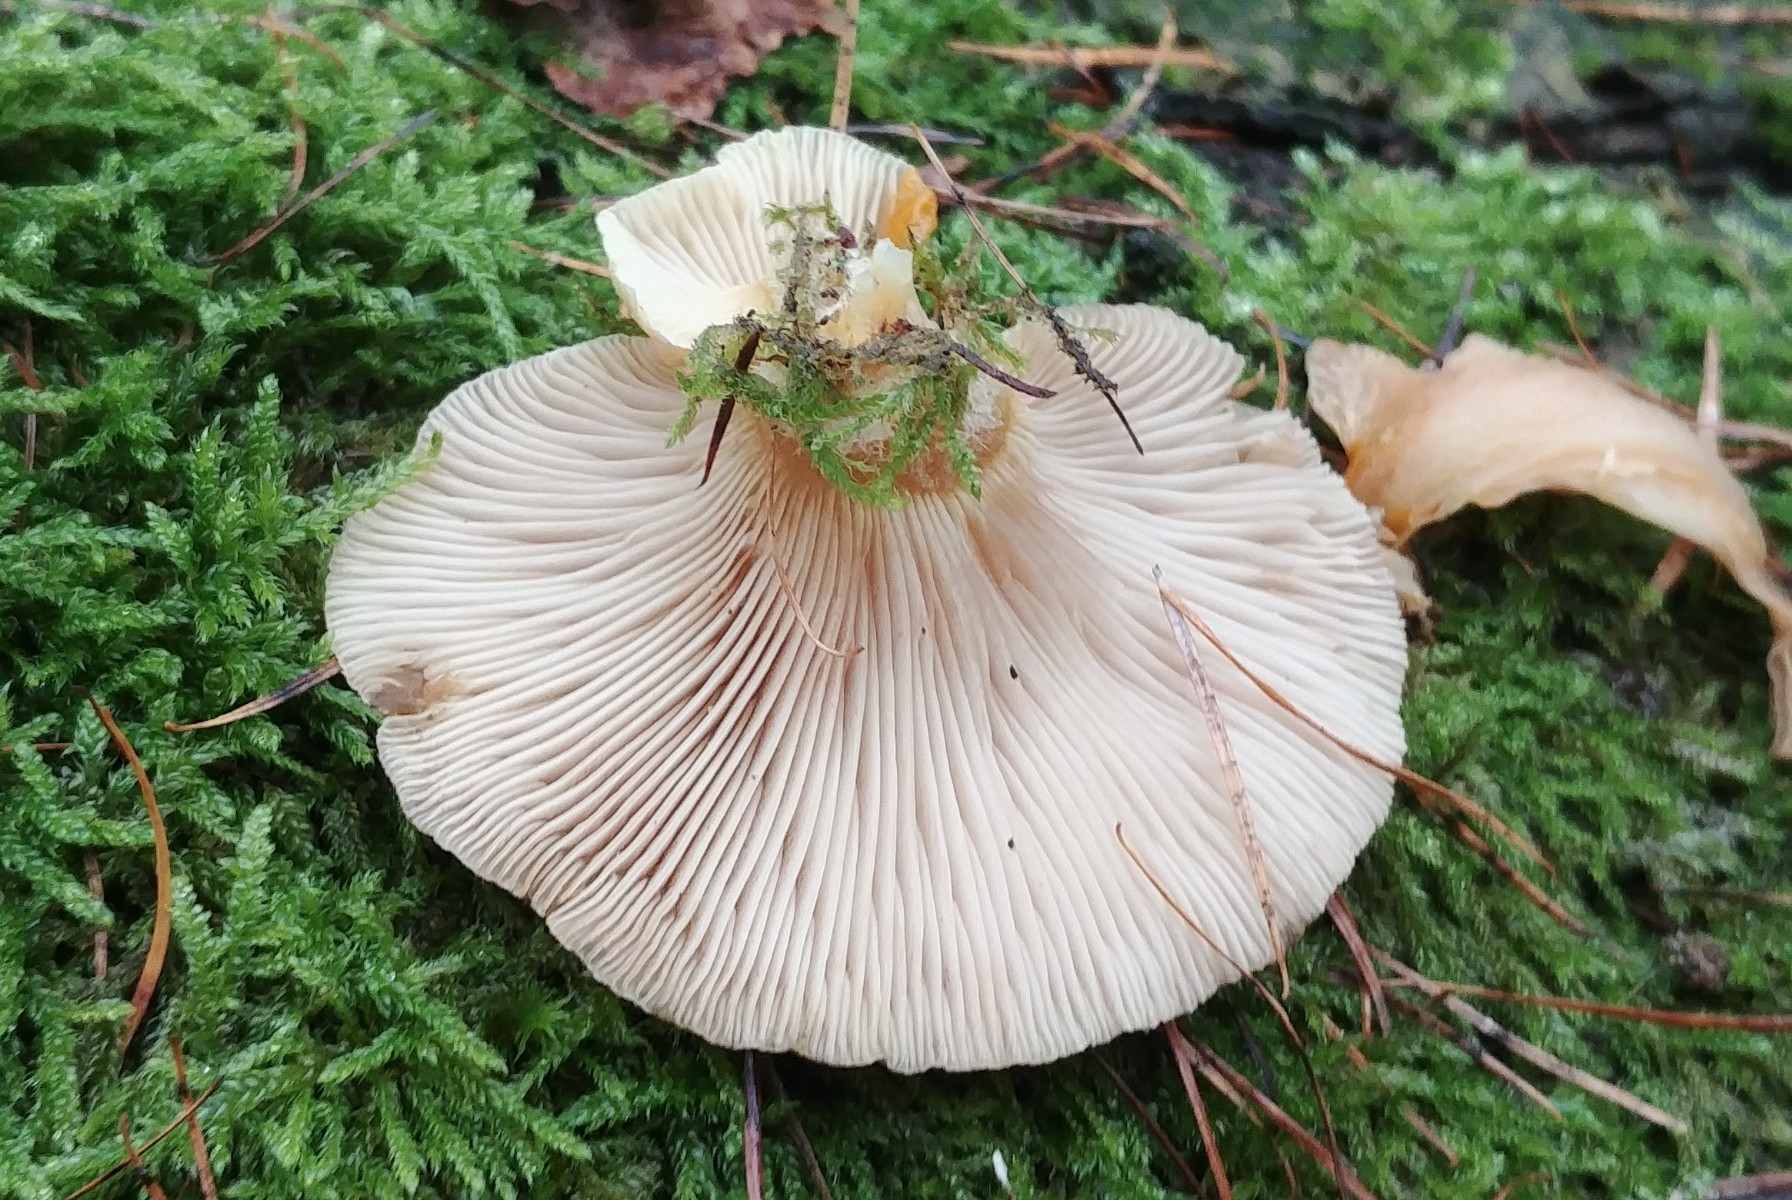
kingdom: Fungi
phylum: Basidiomycota
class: Agaricomycetes
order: Agaricales
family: Sarcomyxaceae
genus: Sarcomyxa
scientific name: Sarcomyxa serotina
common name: gummihat
